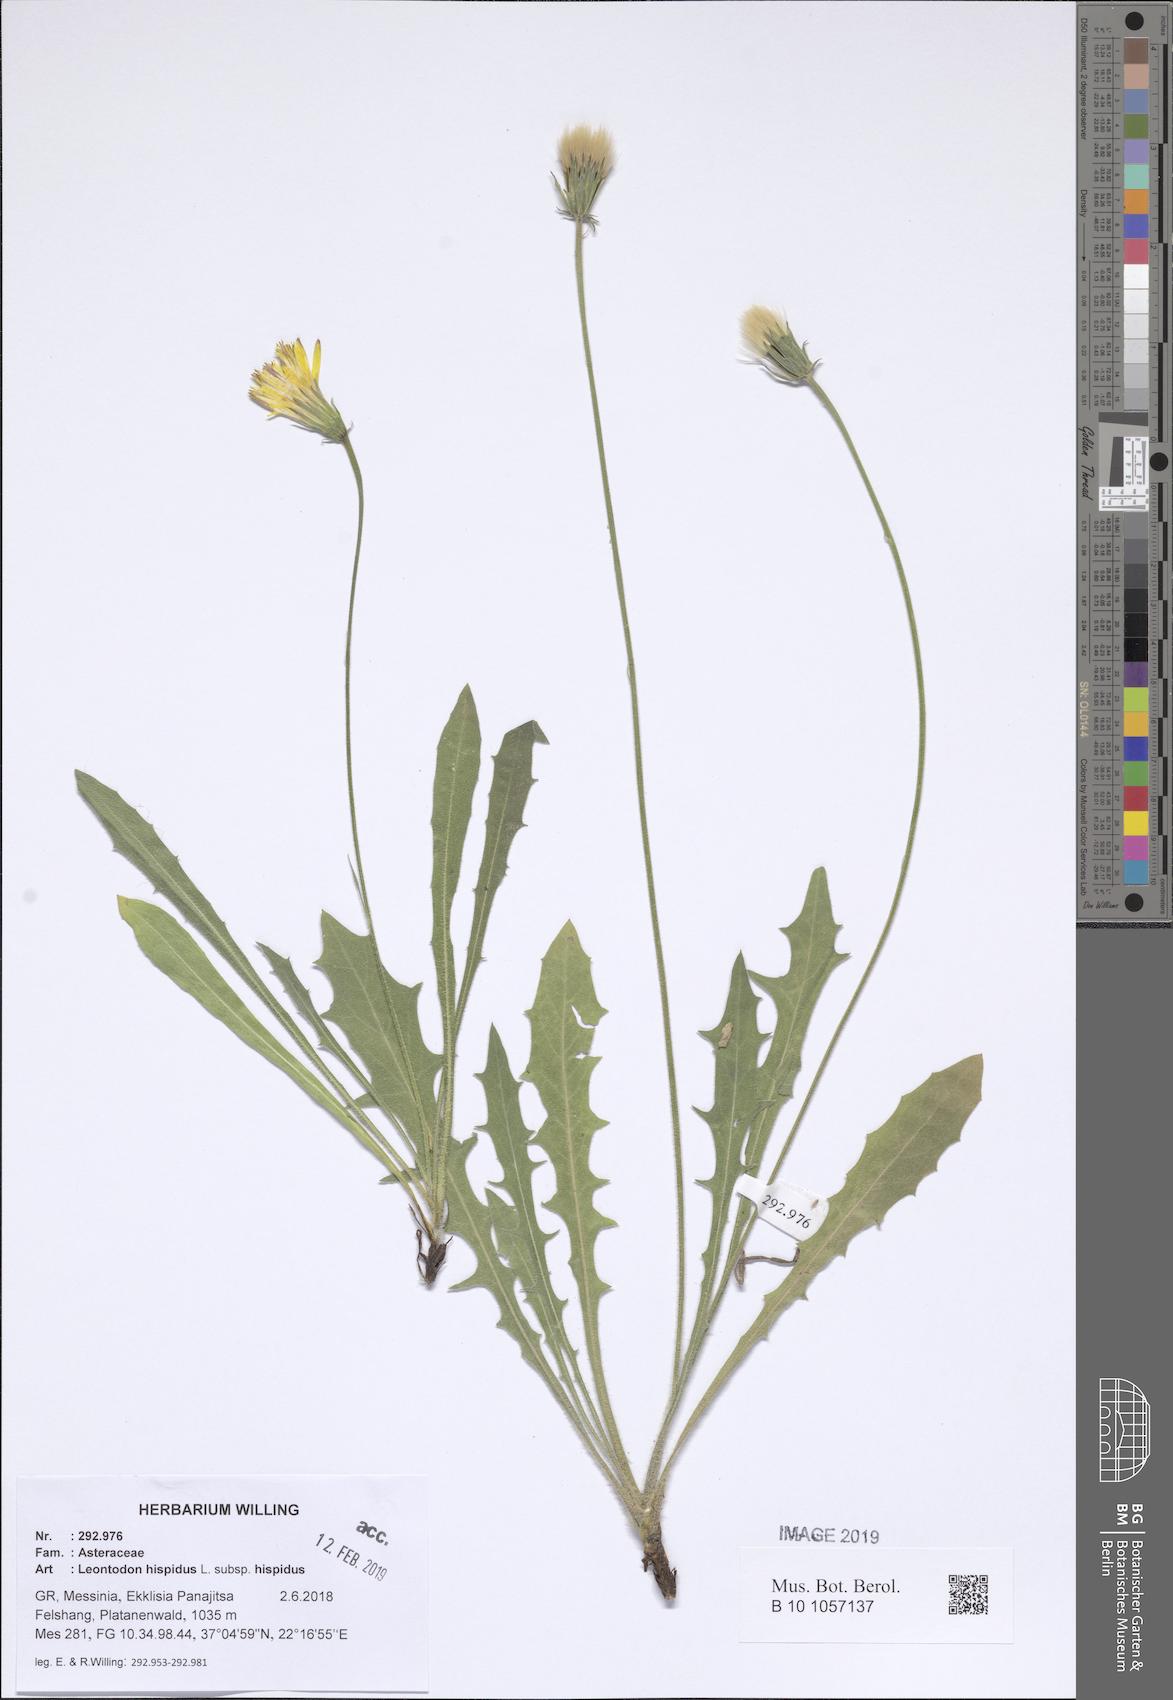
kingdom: Plantae
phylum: Tracheophyta
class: Magnoliopsida
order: Asterales
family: Asteraceae
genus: Leontodon
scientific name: Leontodon hispidus
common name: Rough hawkbit
